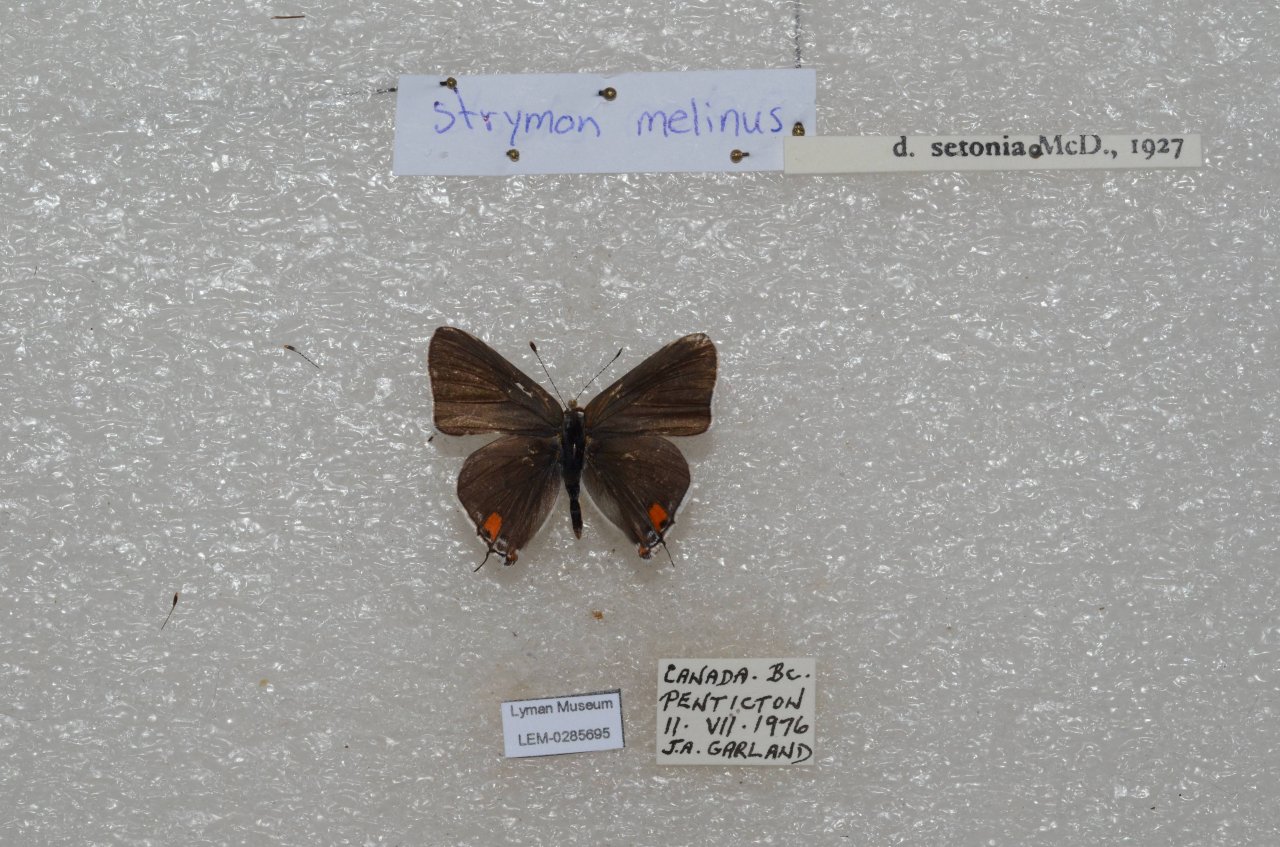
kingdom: Animalia
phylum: Arthropoda
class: Insecta
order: Lepidoptera
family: Lycaenidae
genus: Strymon
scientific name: Strymon melinus
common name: Gray Hairstreak
